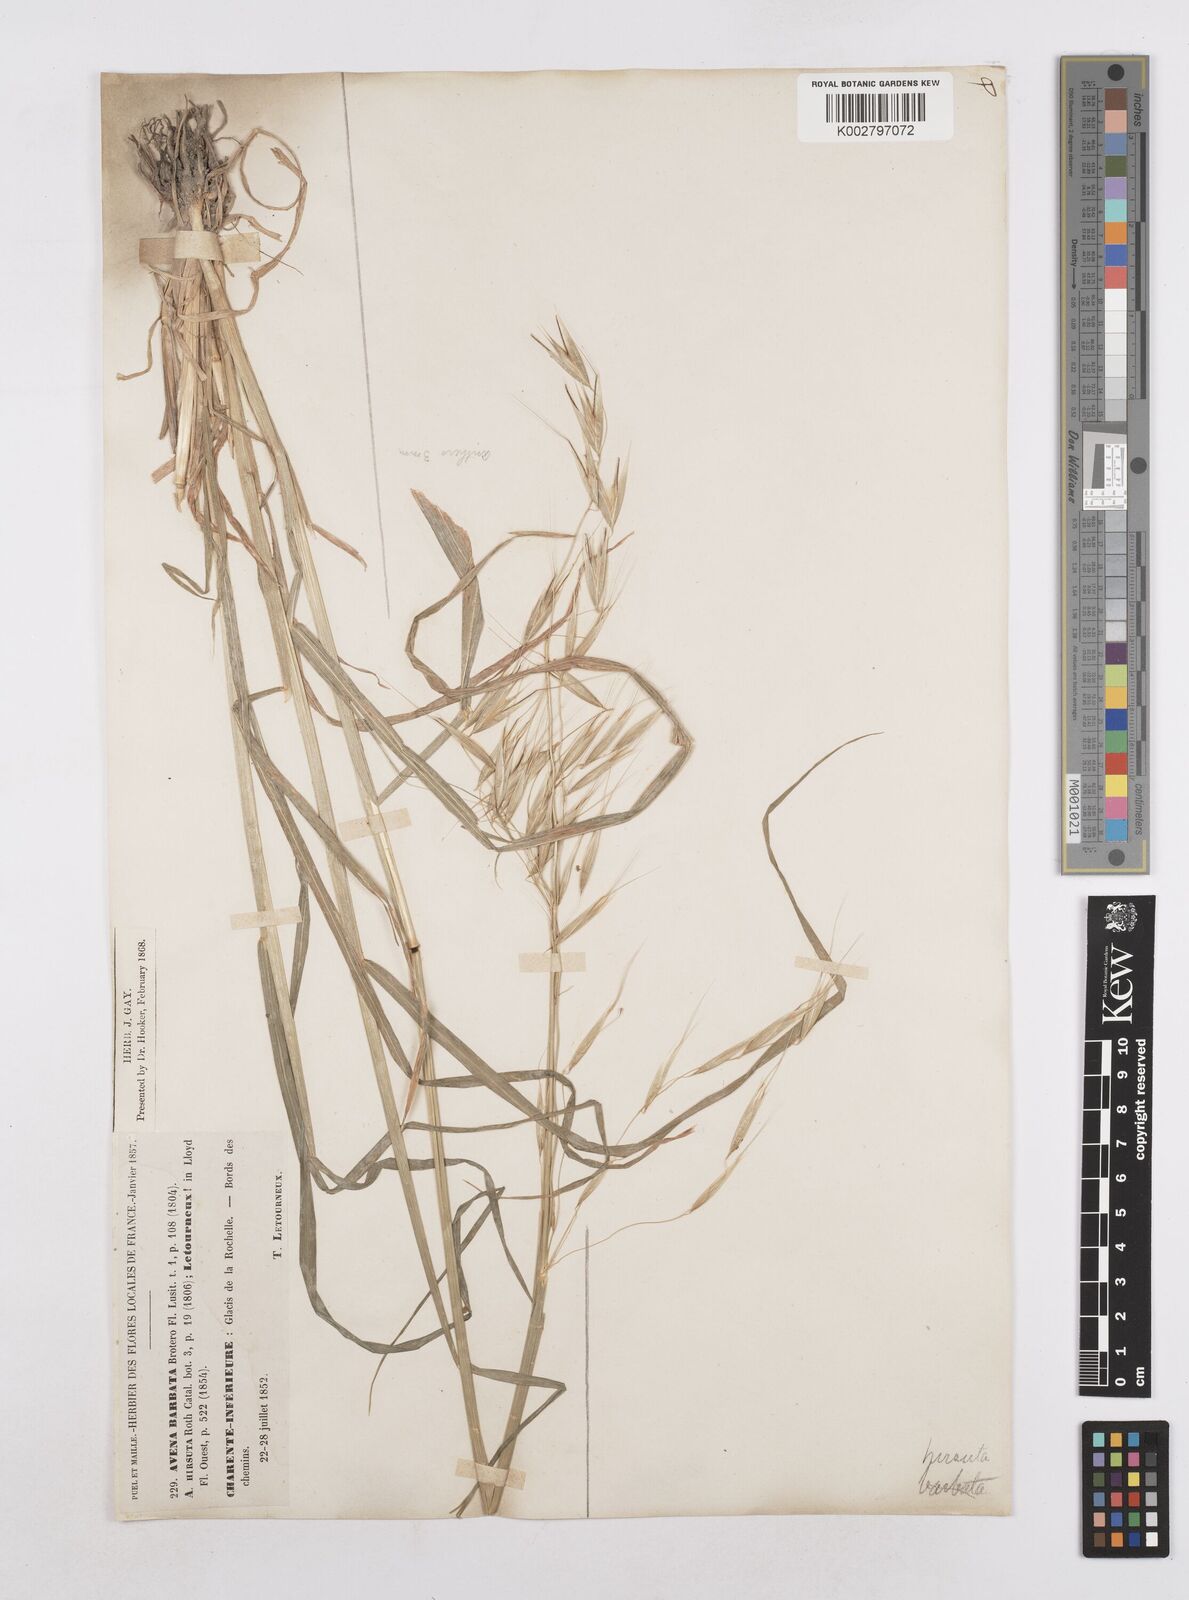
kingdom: Plantae
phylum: Tracheophyta
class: Liliopsida
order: Poales
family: Poaceae
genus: Avena
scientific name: Avena
